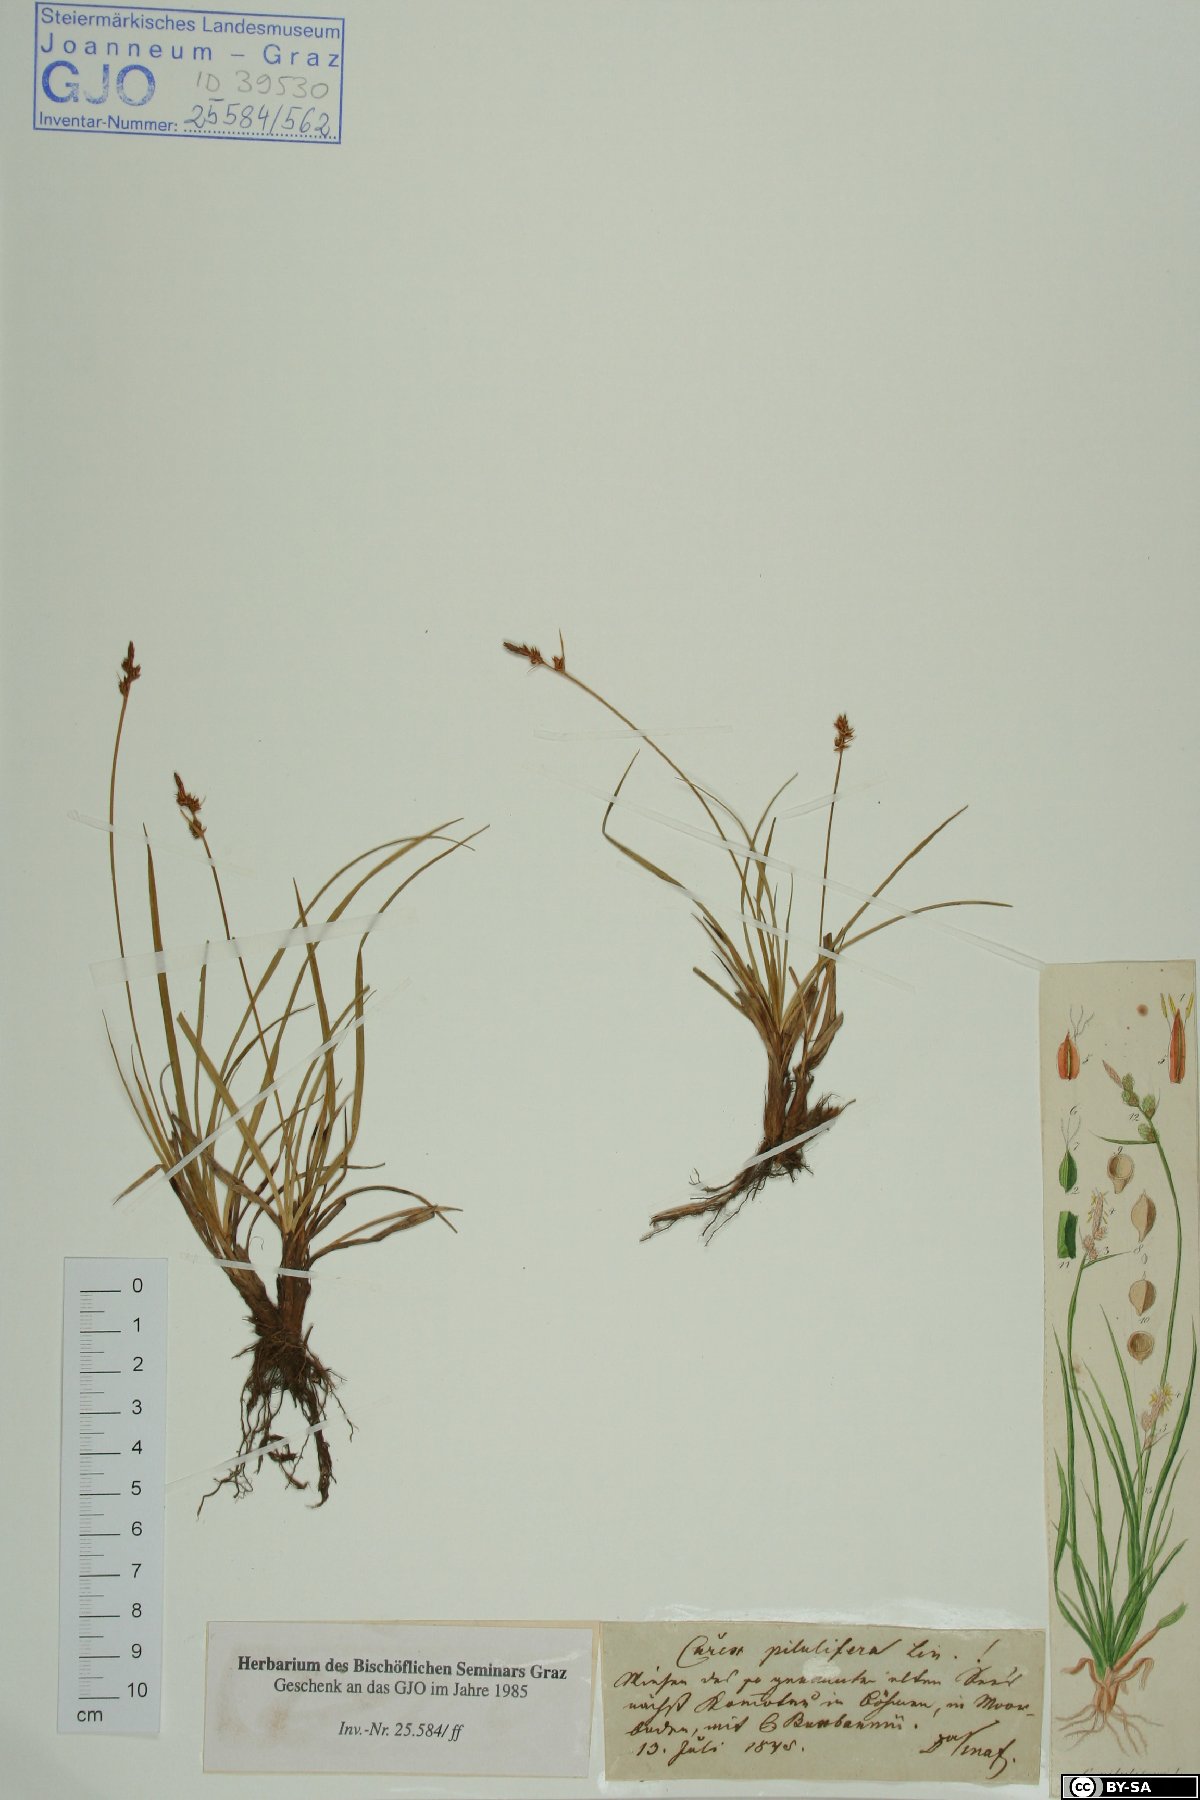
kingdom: Plantae
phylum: Tracheophyta
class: Liliopsida
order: Poales
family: Cyperaceae
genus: Carex
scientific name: Carex pilulifera
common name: Pill sedge
